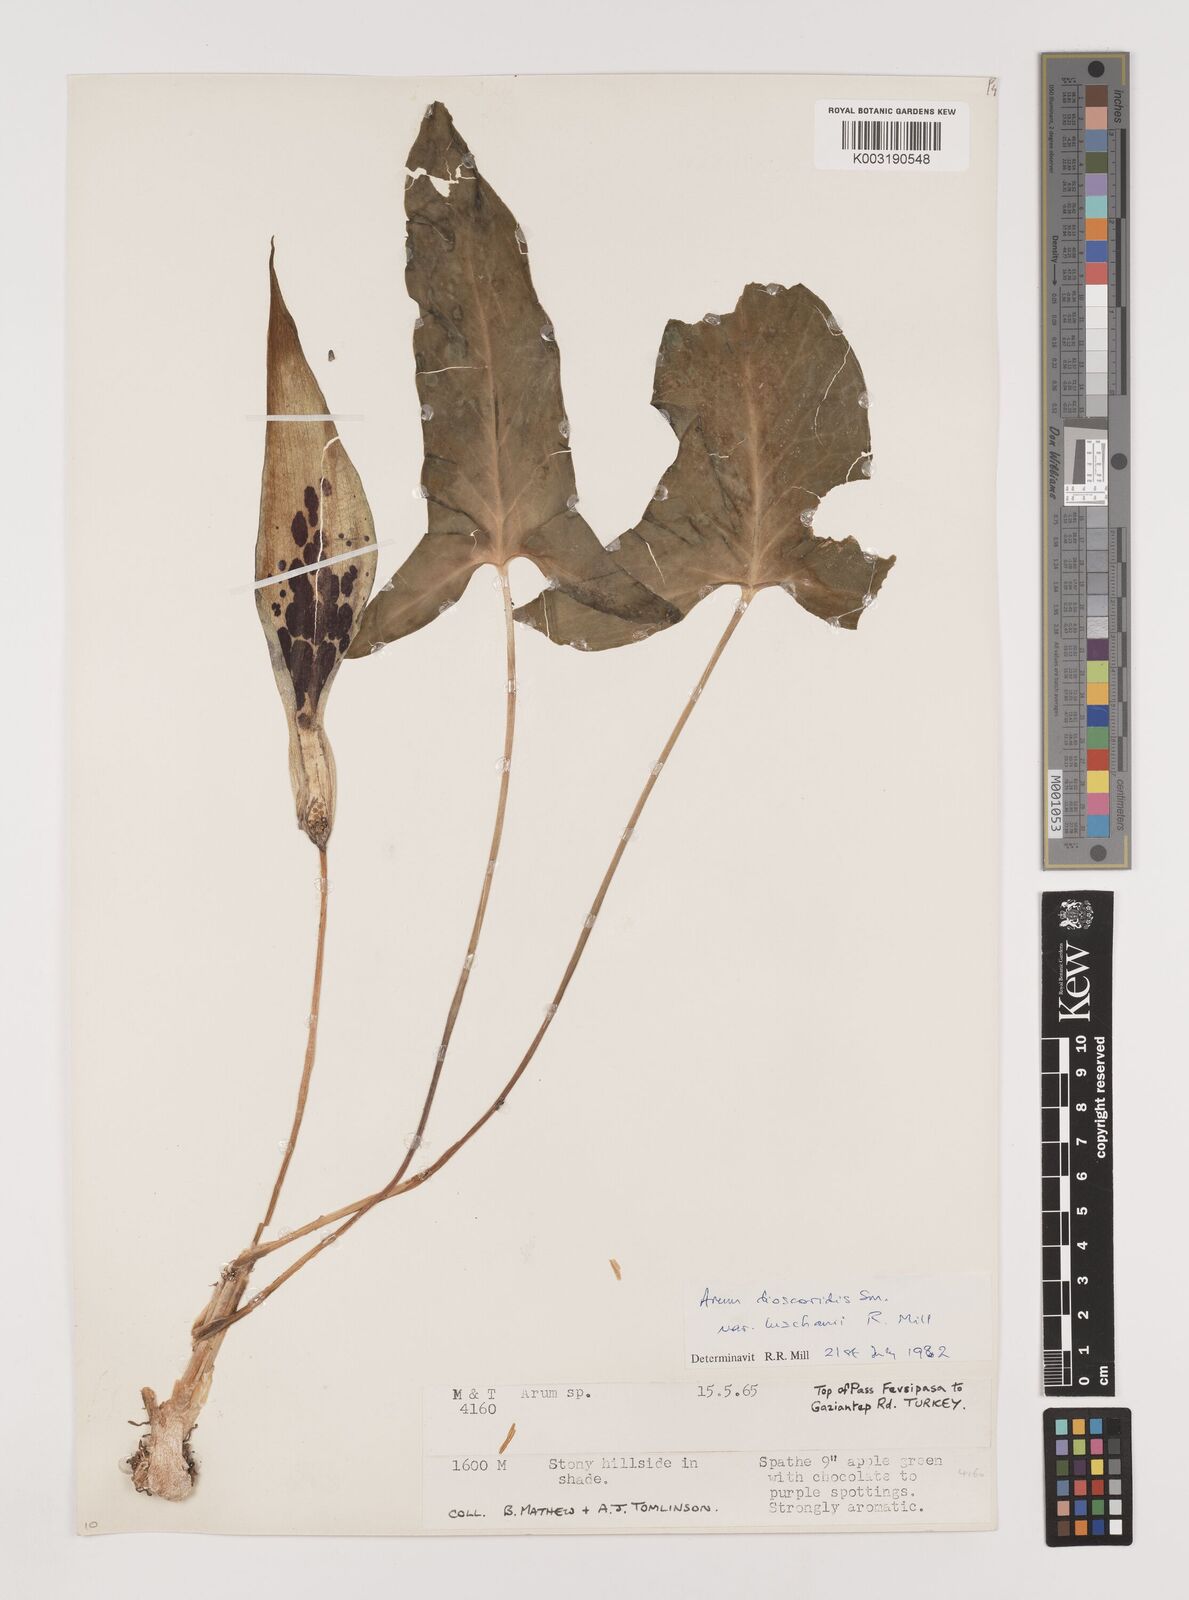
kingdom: Plantae
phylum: Tracheophyta
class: Liliopsida
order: Alismatales
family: Araceae
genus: Arum
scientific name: Arum dioscoridis
